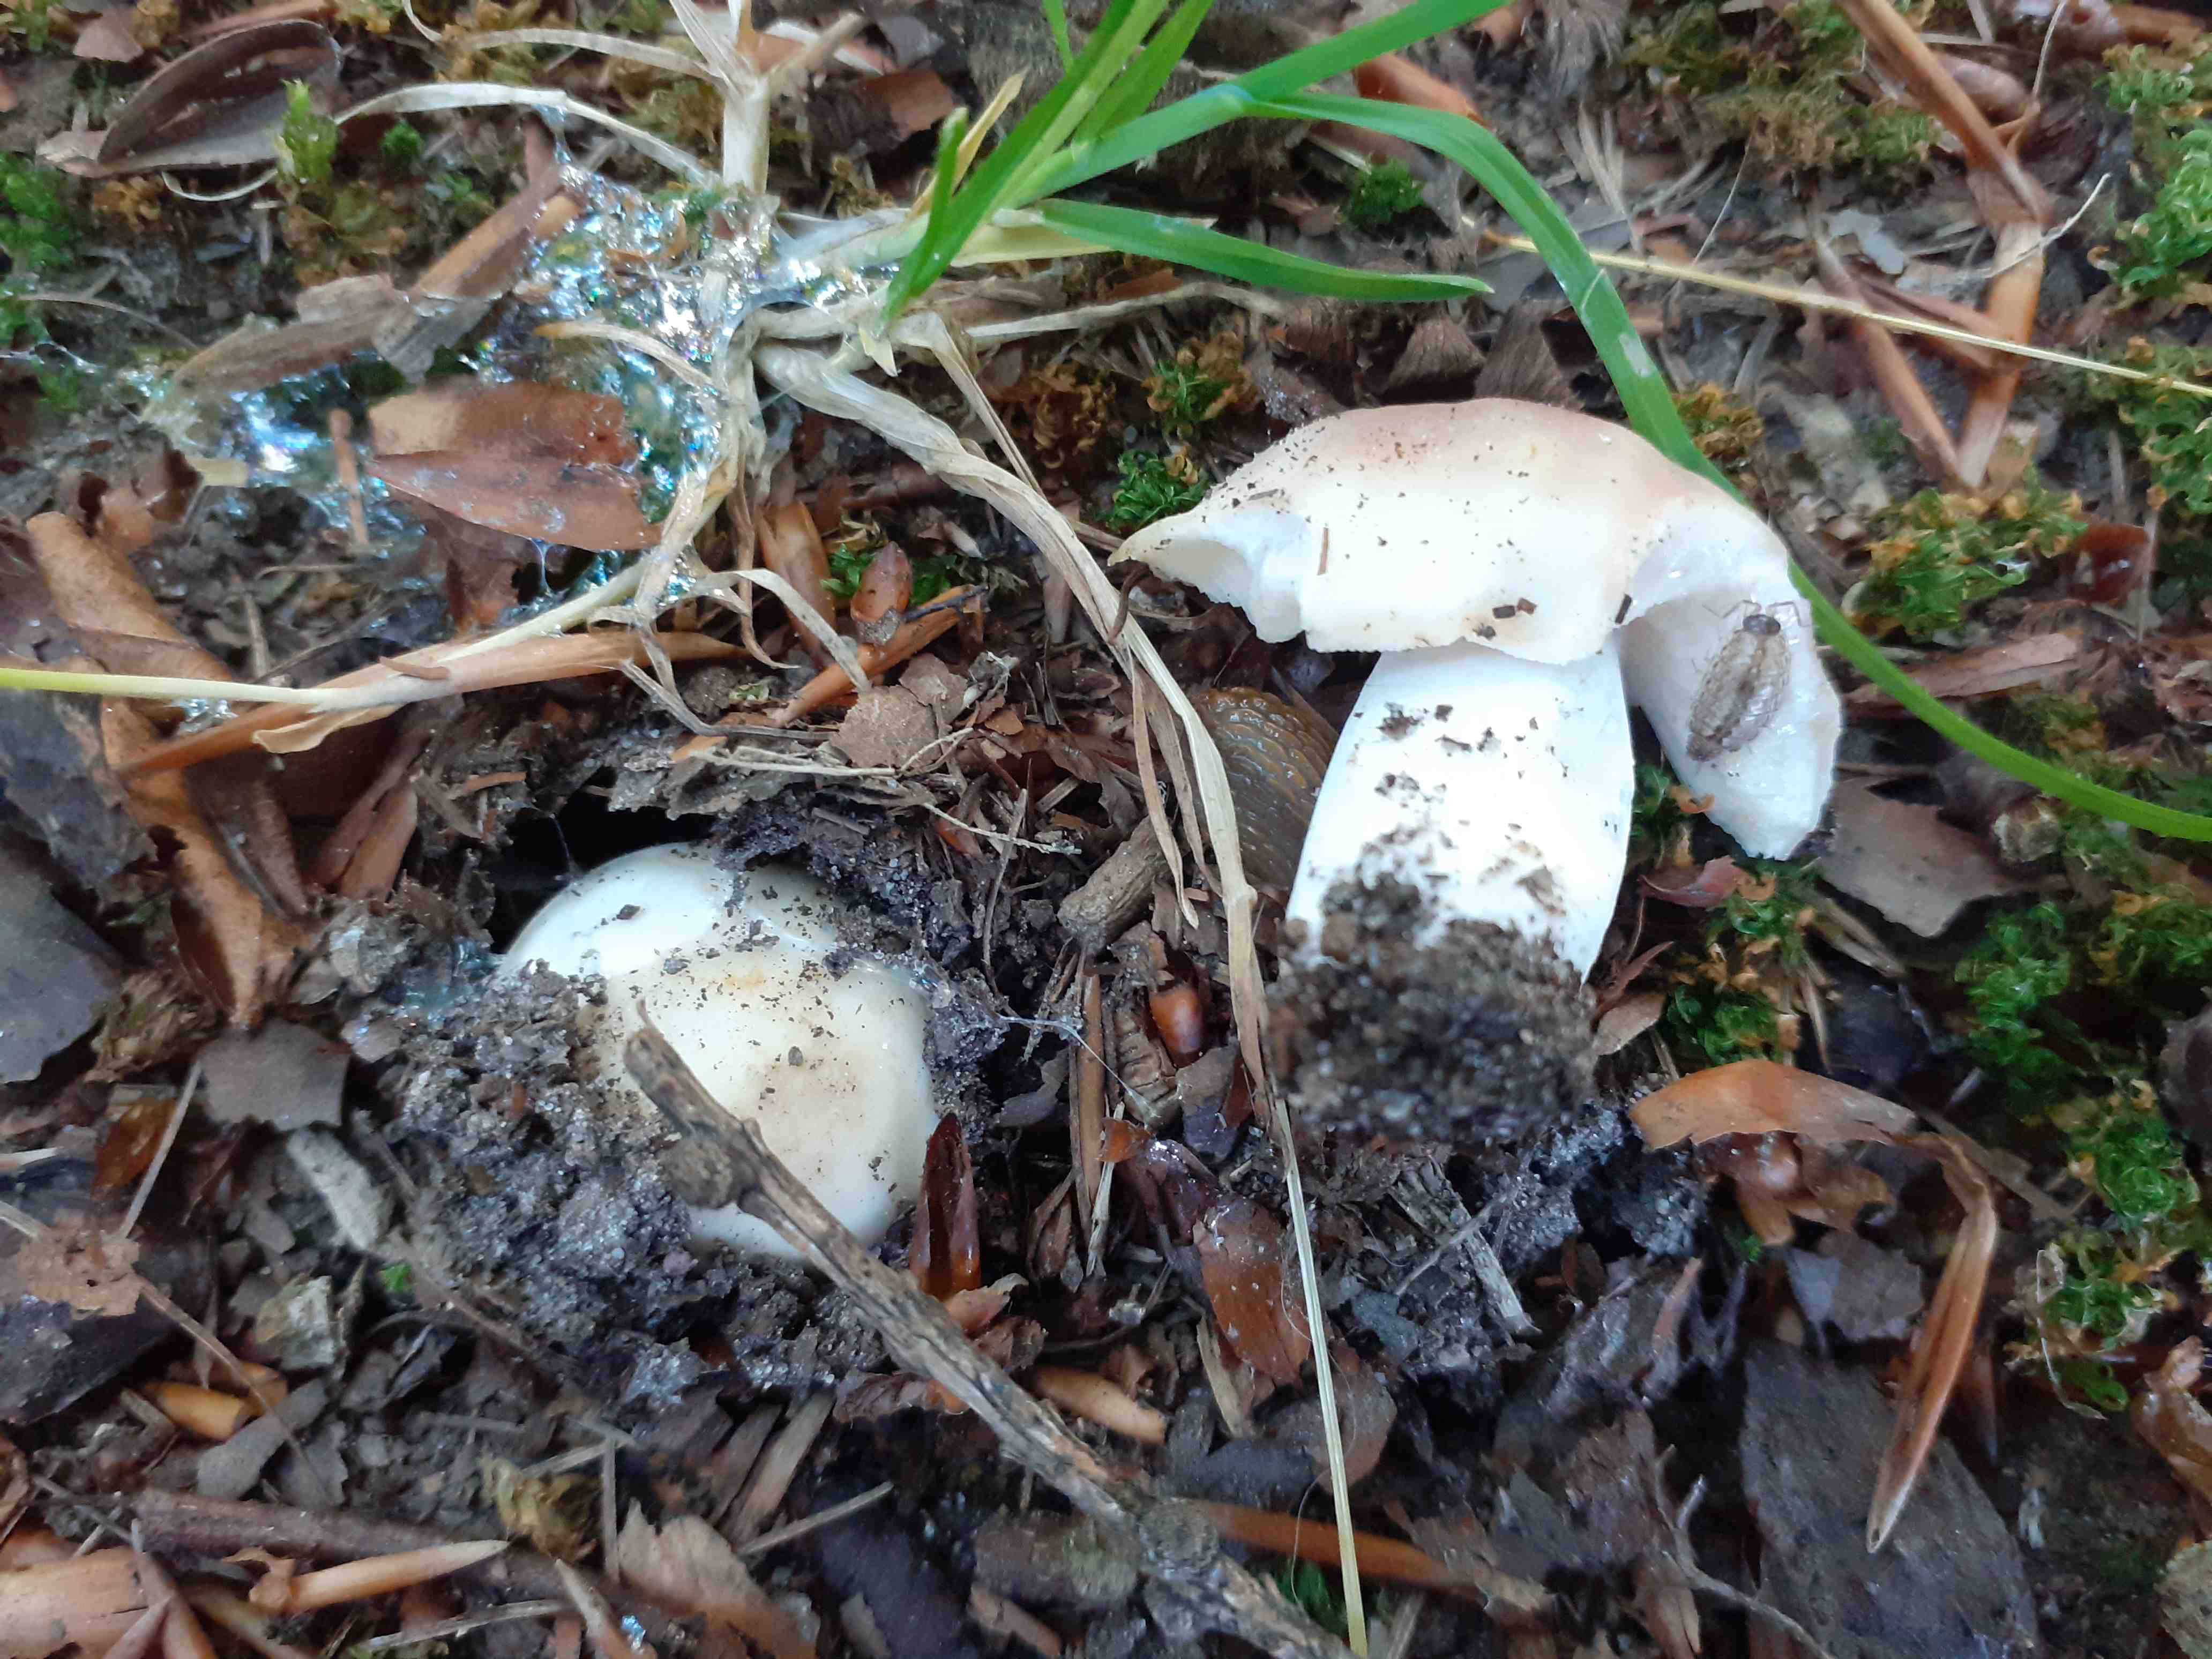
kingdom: Fungi
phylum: Basidiomycota
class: Agaricomycetes
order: Russulales
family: Russulaceae
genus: Russula
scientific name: Russula vesca
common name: spiselig skørhat
